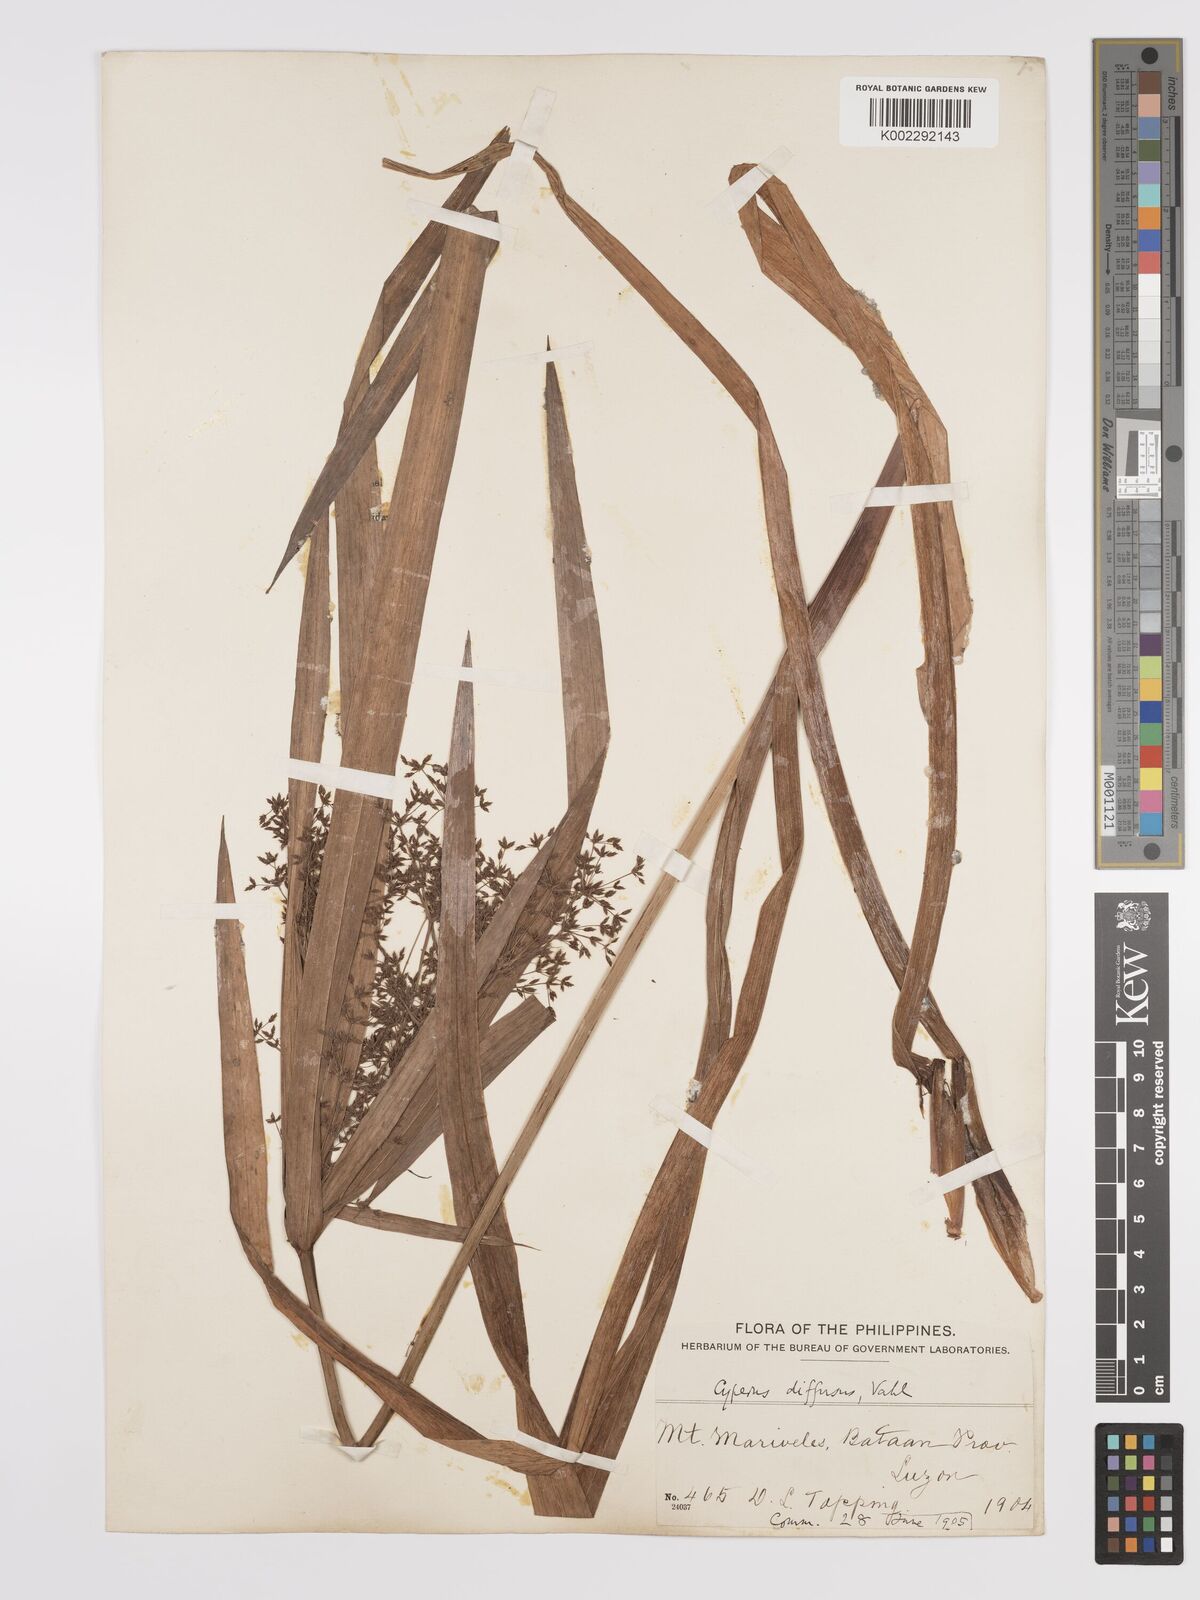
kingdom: Plantae
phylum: Tracheophyta
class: Liliopsida
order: Poales
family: Cyperaceae
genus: Cyperus
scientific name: Cyperus diffusus
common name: Dwarf umbrella grass
